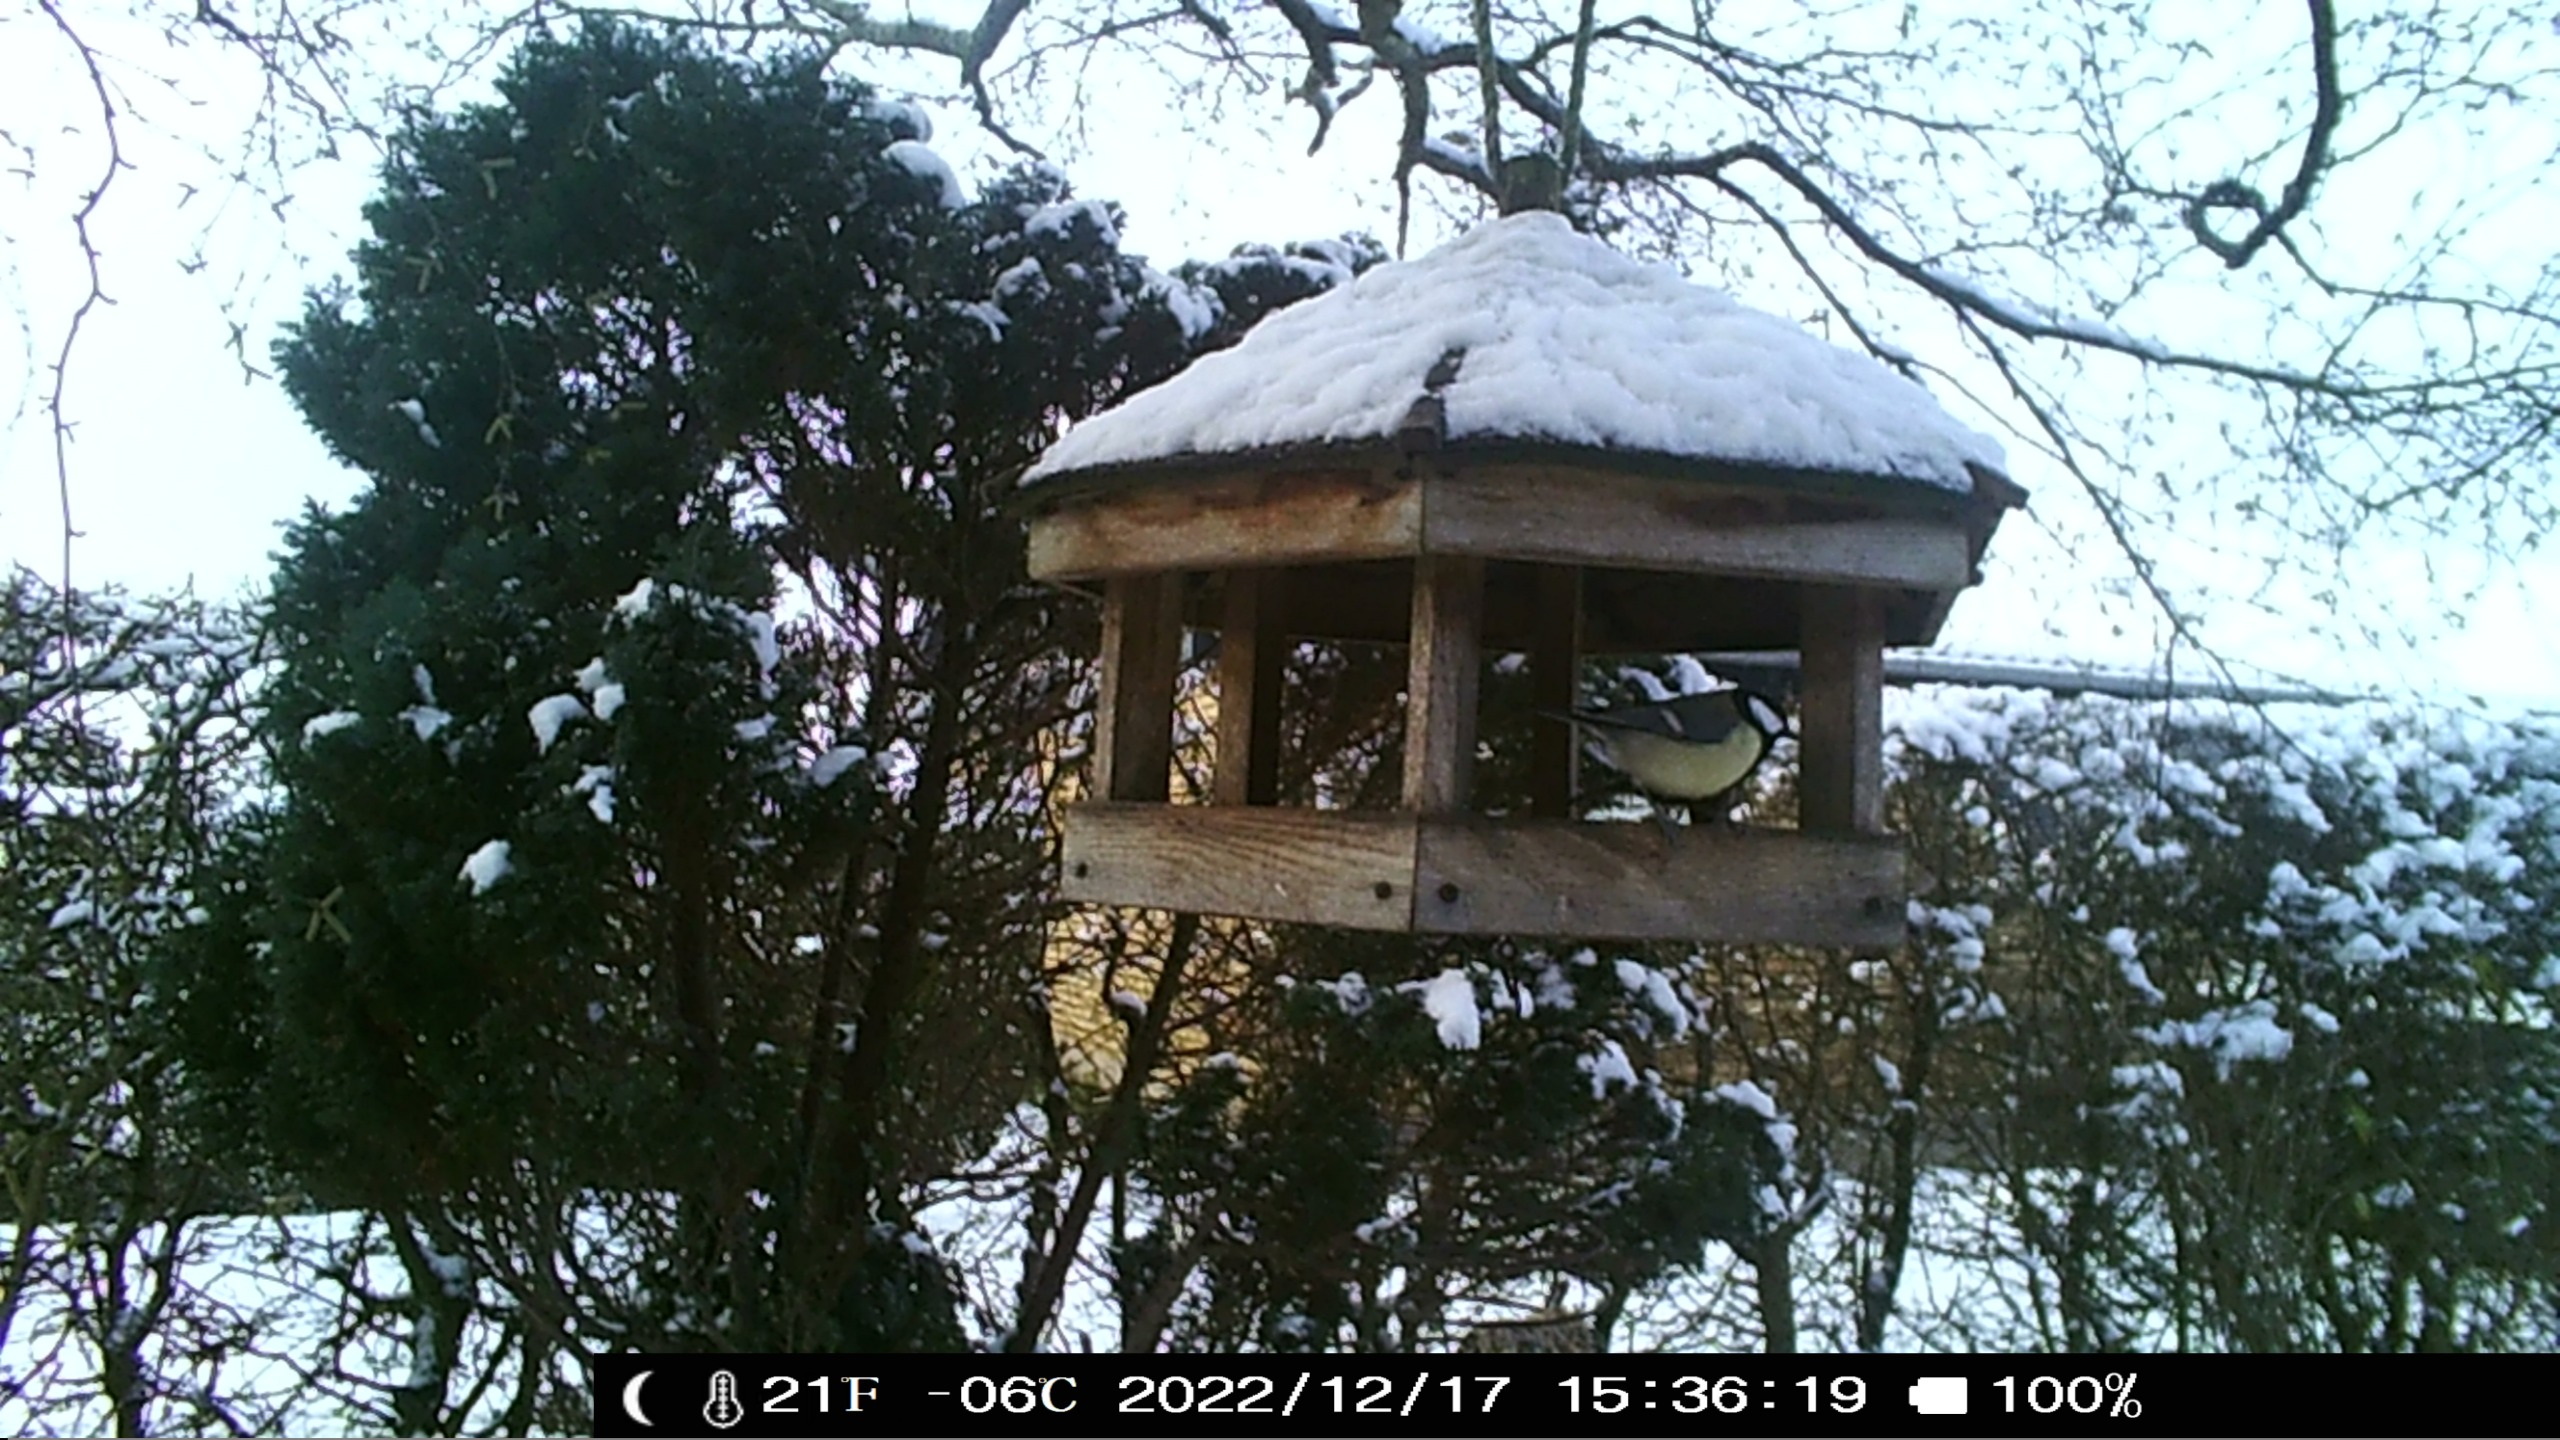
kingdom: Animalia
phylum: Chordata
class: Aves
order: Passeriformes
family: Paridae
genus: Parus
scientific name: Parus major
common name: Musvit
